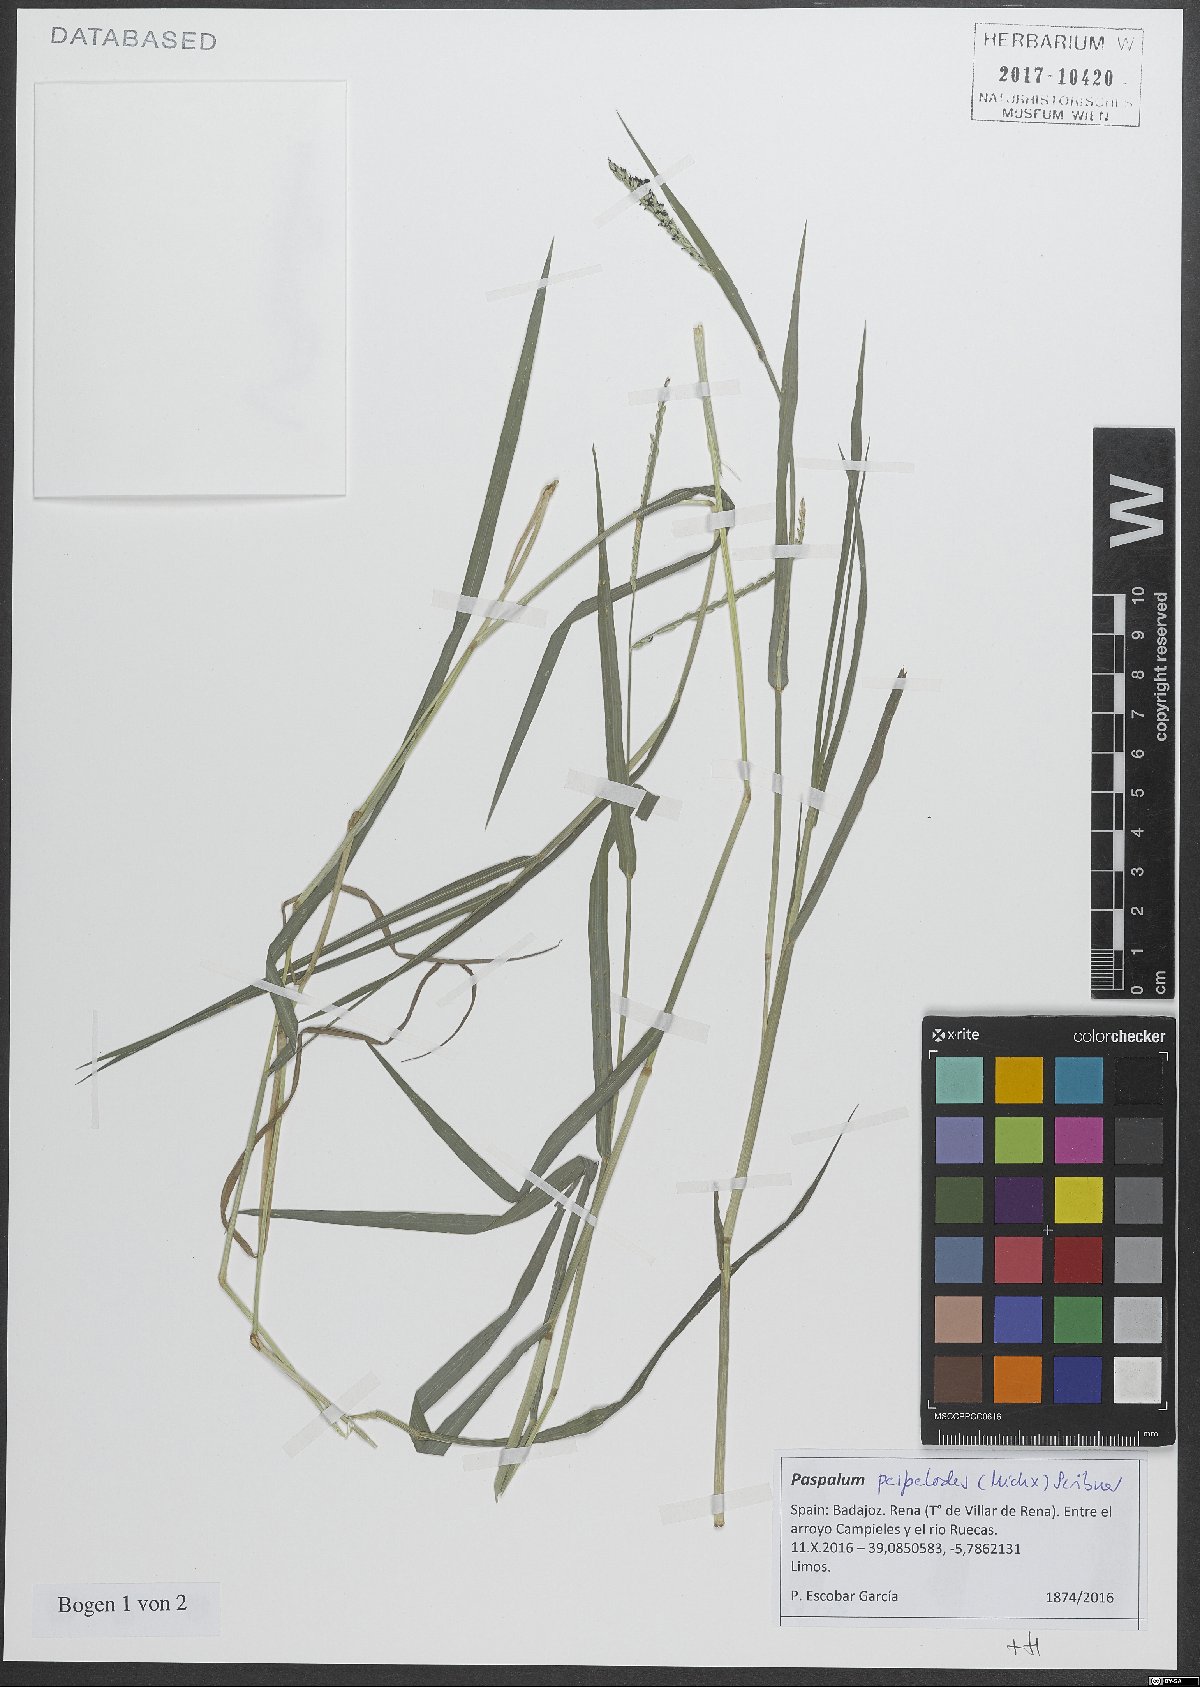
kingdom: Plantae
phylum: Tracheophyta
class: Liliopsida
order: Poales
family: Poaceae
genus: Paspalum
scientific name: Paspalum distichum
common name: Knotgrass
